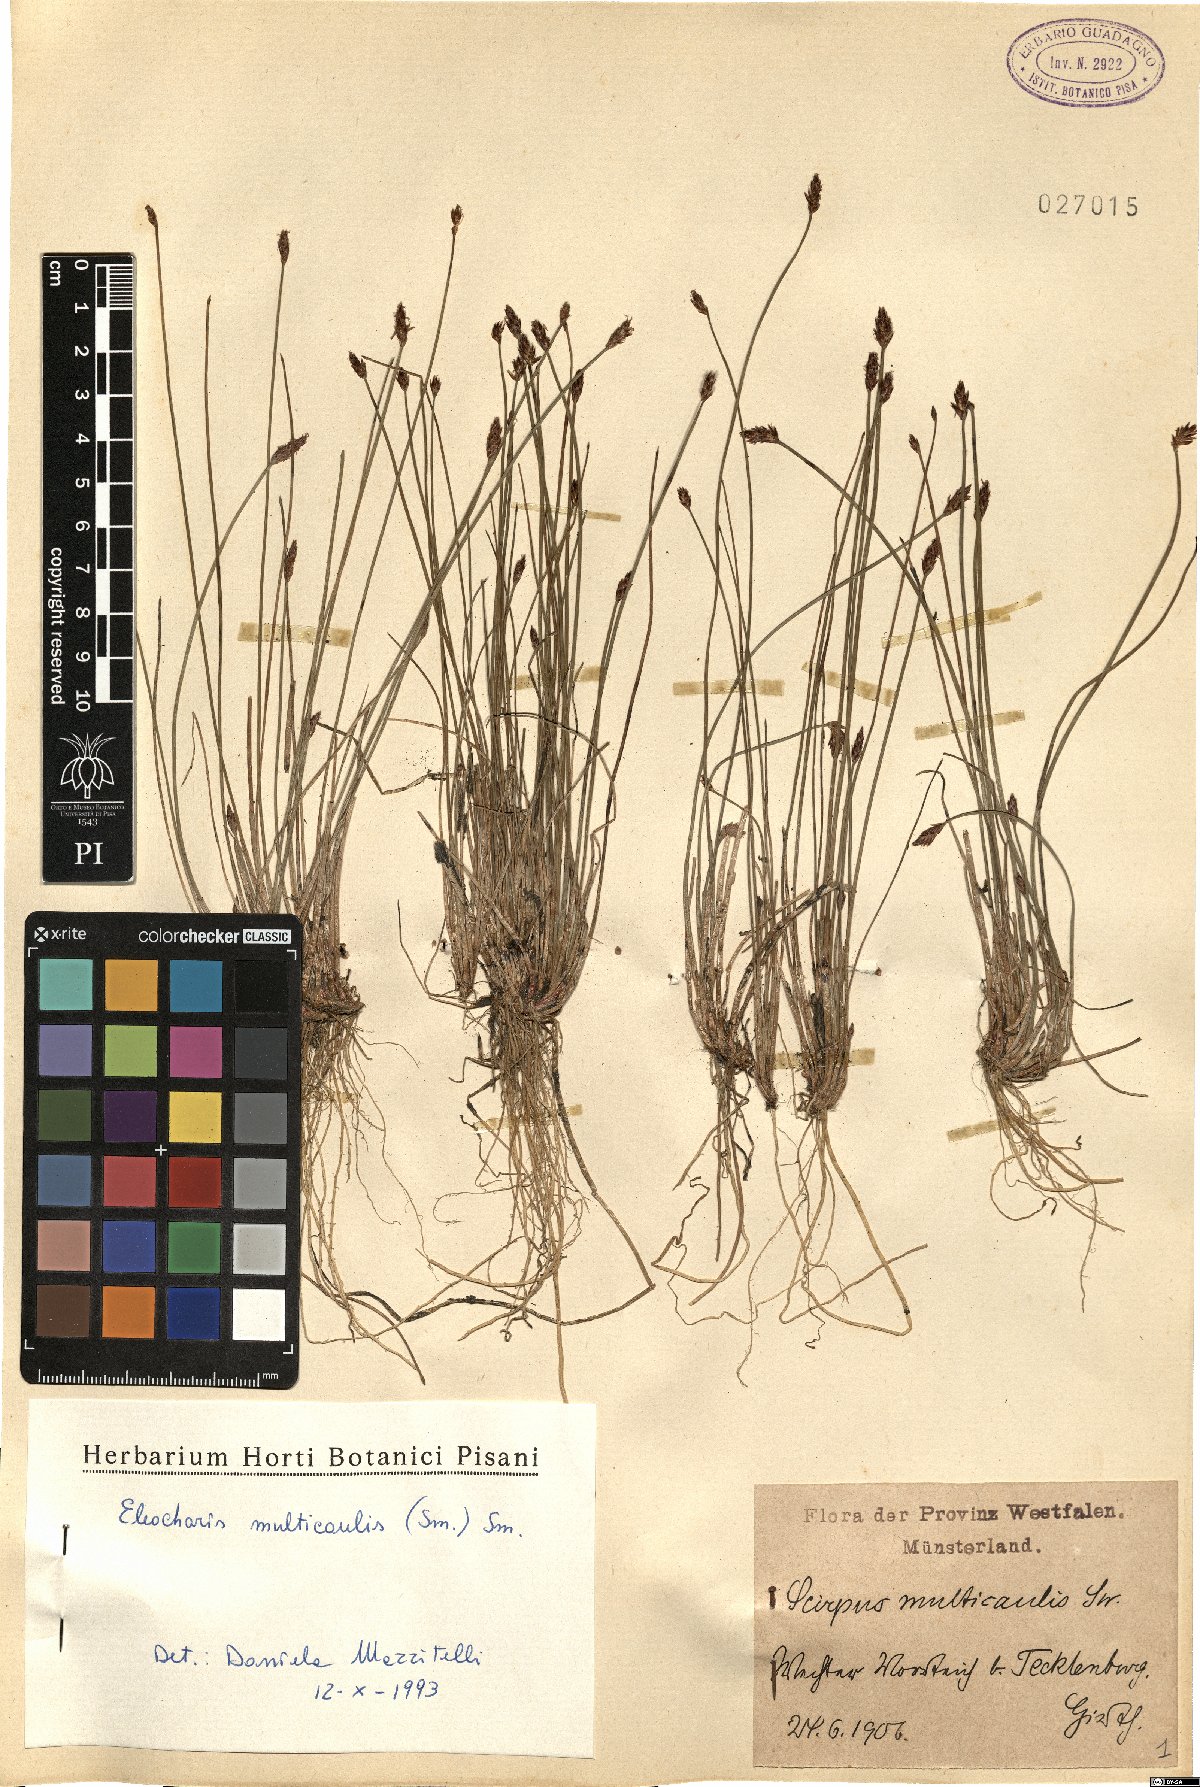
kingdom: Plantae
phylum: Tracheophyta
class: Liliopsida
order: Poales
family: Cyperaceae
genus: Eleocharis
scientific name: Eleocharis multicaulis
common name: Many-stalked spike-rush
